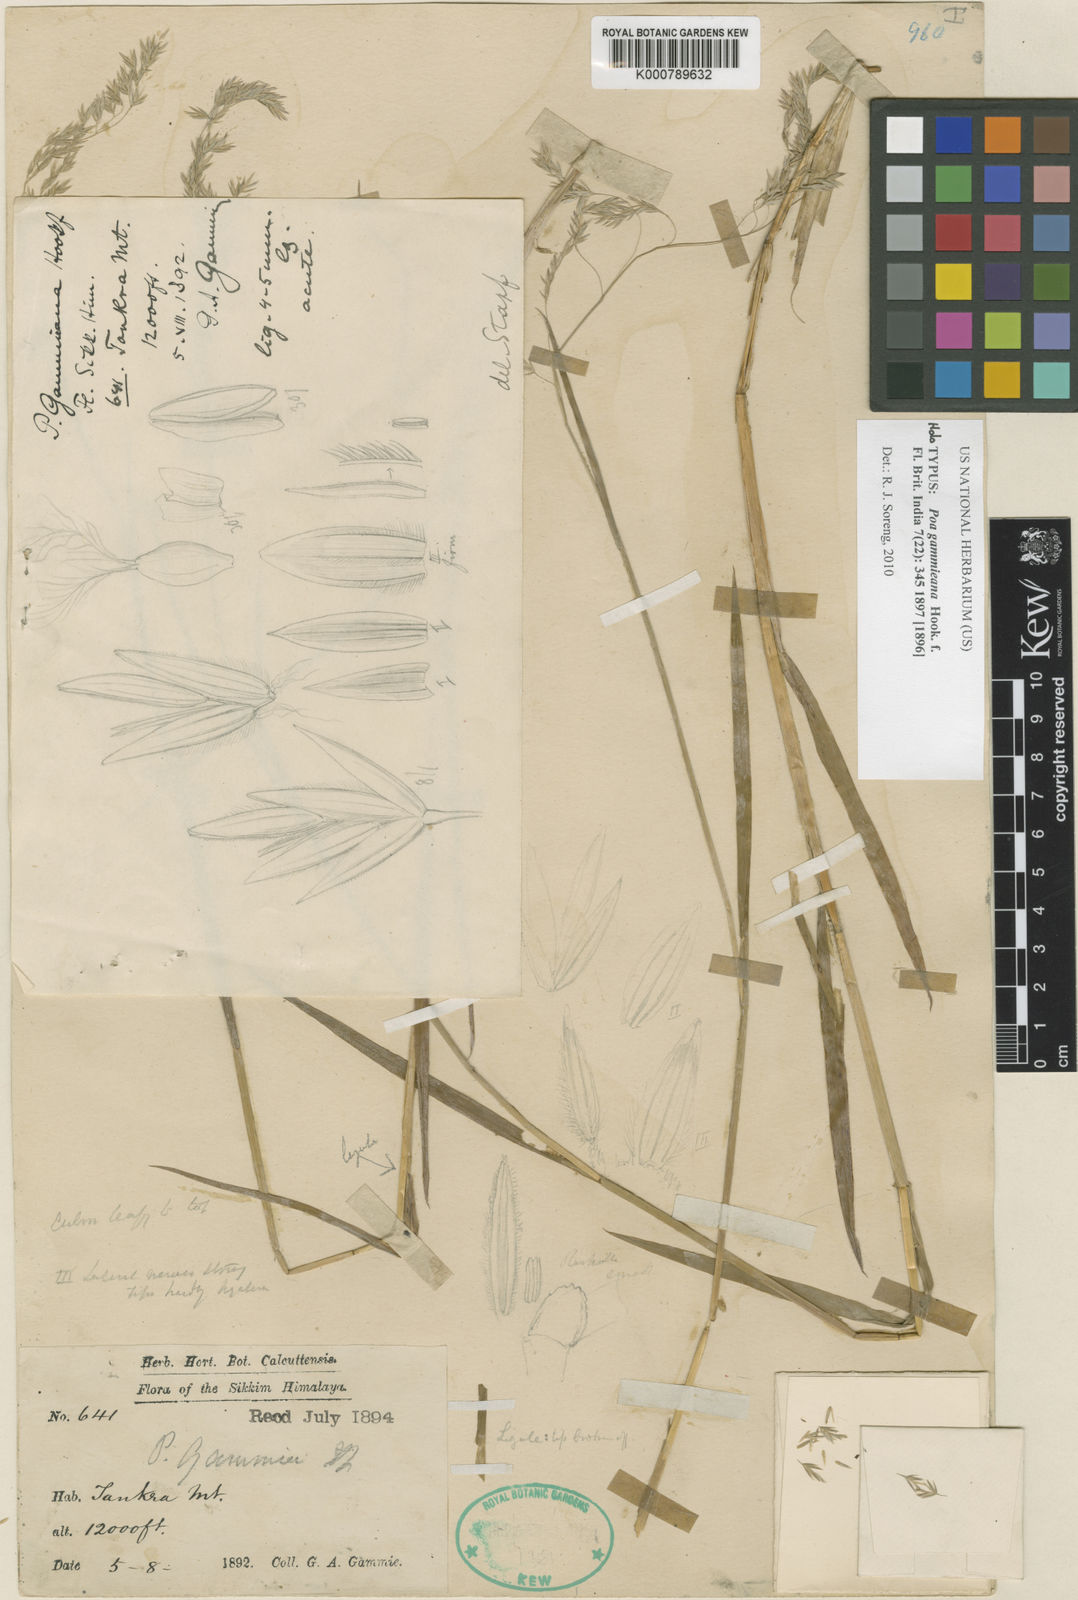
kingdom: Plantae
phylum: Tracheophyta
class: Liliopsida
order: Poales
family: Poaceae
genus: Poa
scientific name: Poa gammieana
